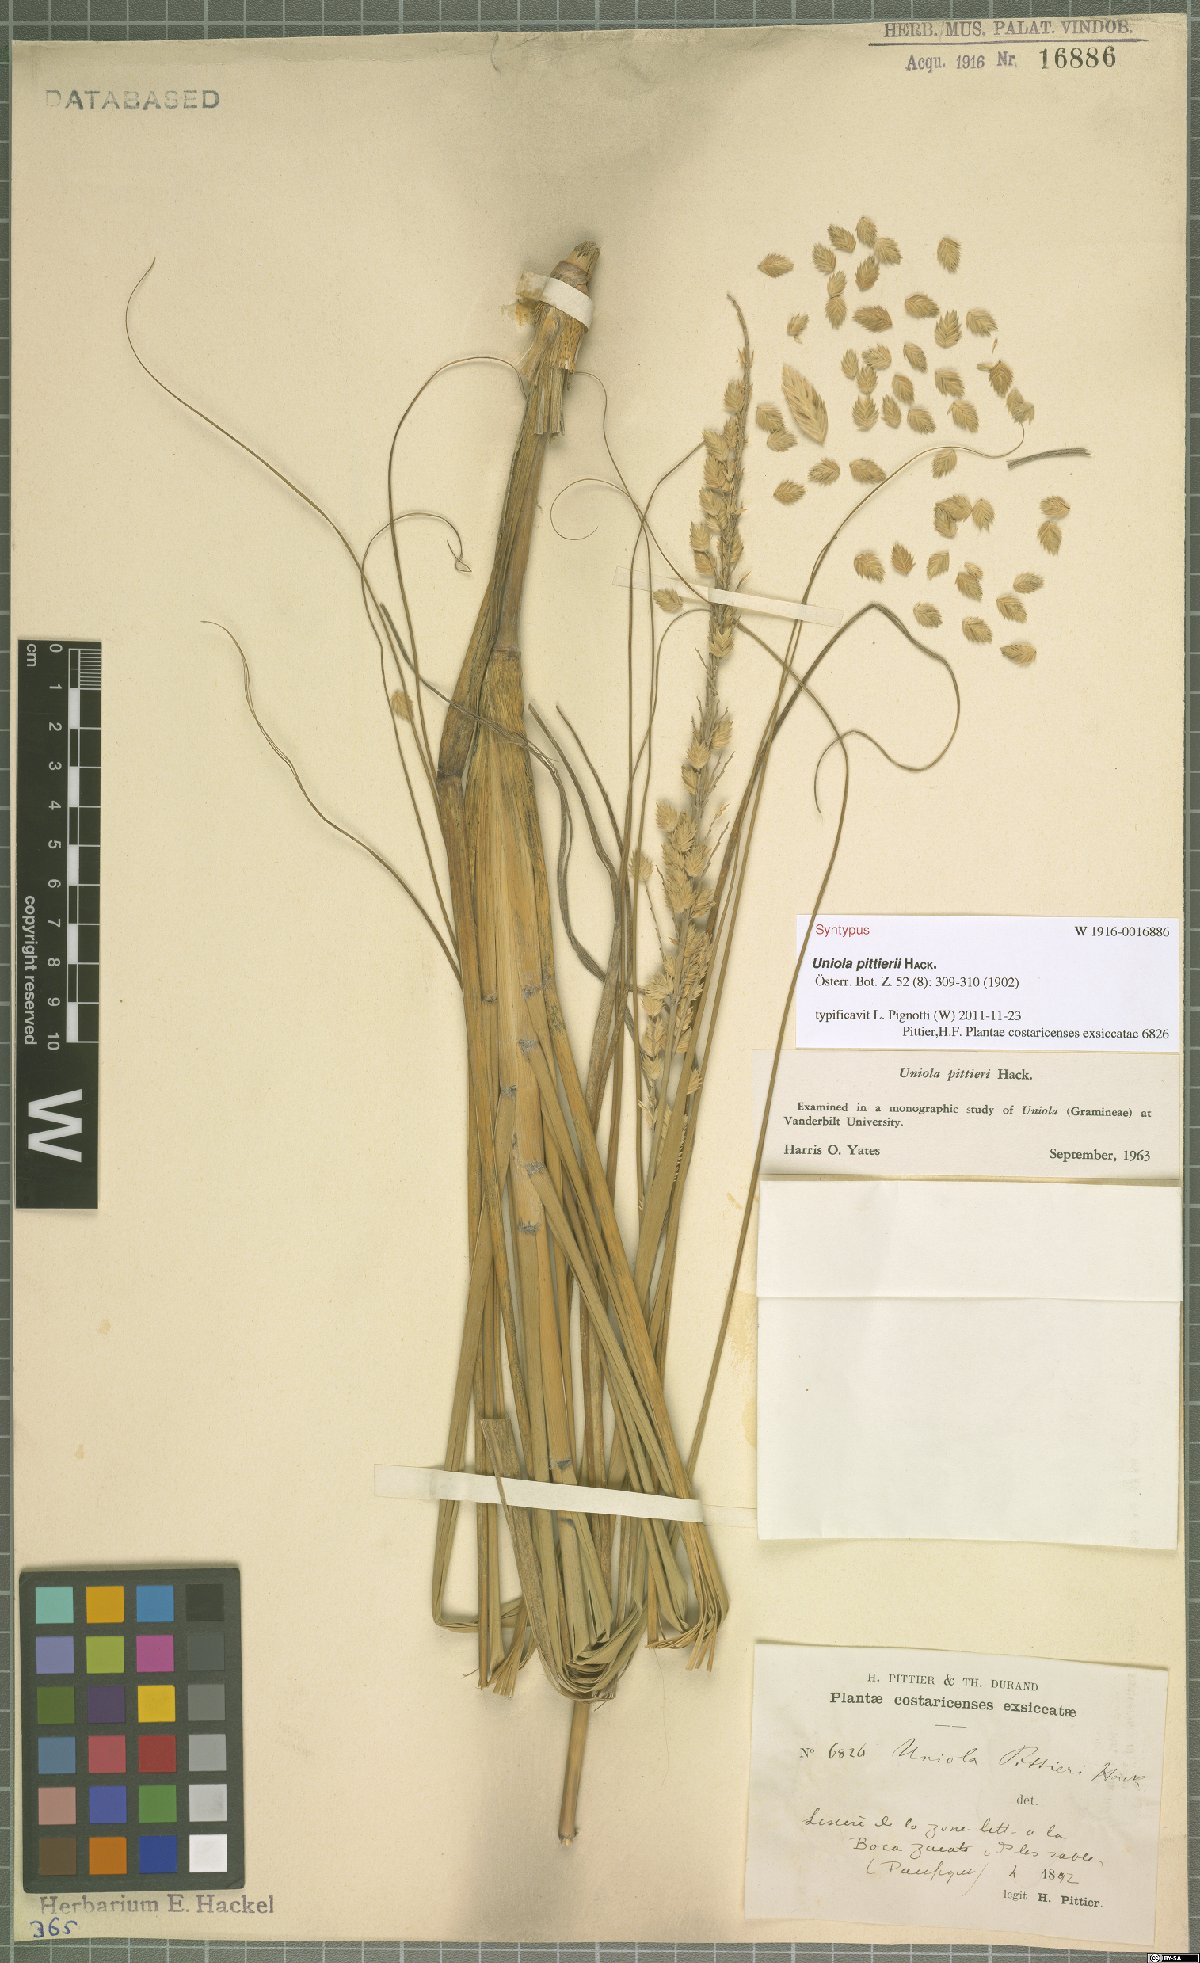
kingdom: Plantae
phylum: Tracheophyta
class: Liliopsida
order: Poales
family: Poaceae
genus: Uniola
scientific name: Uniola pittieri
